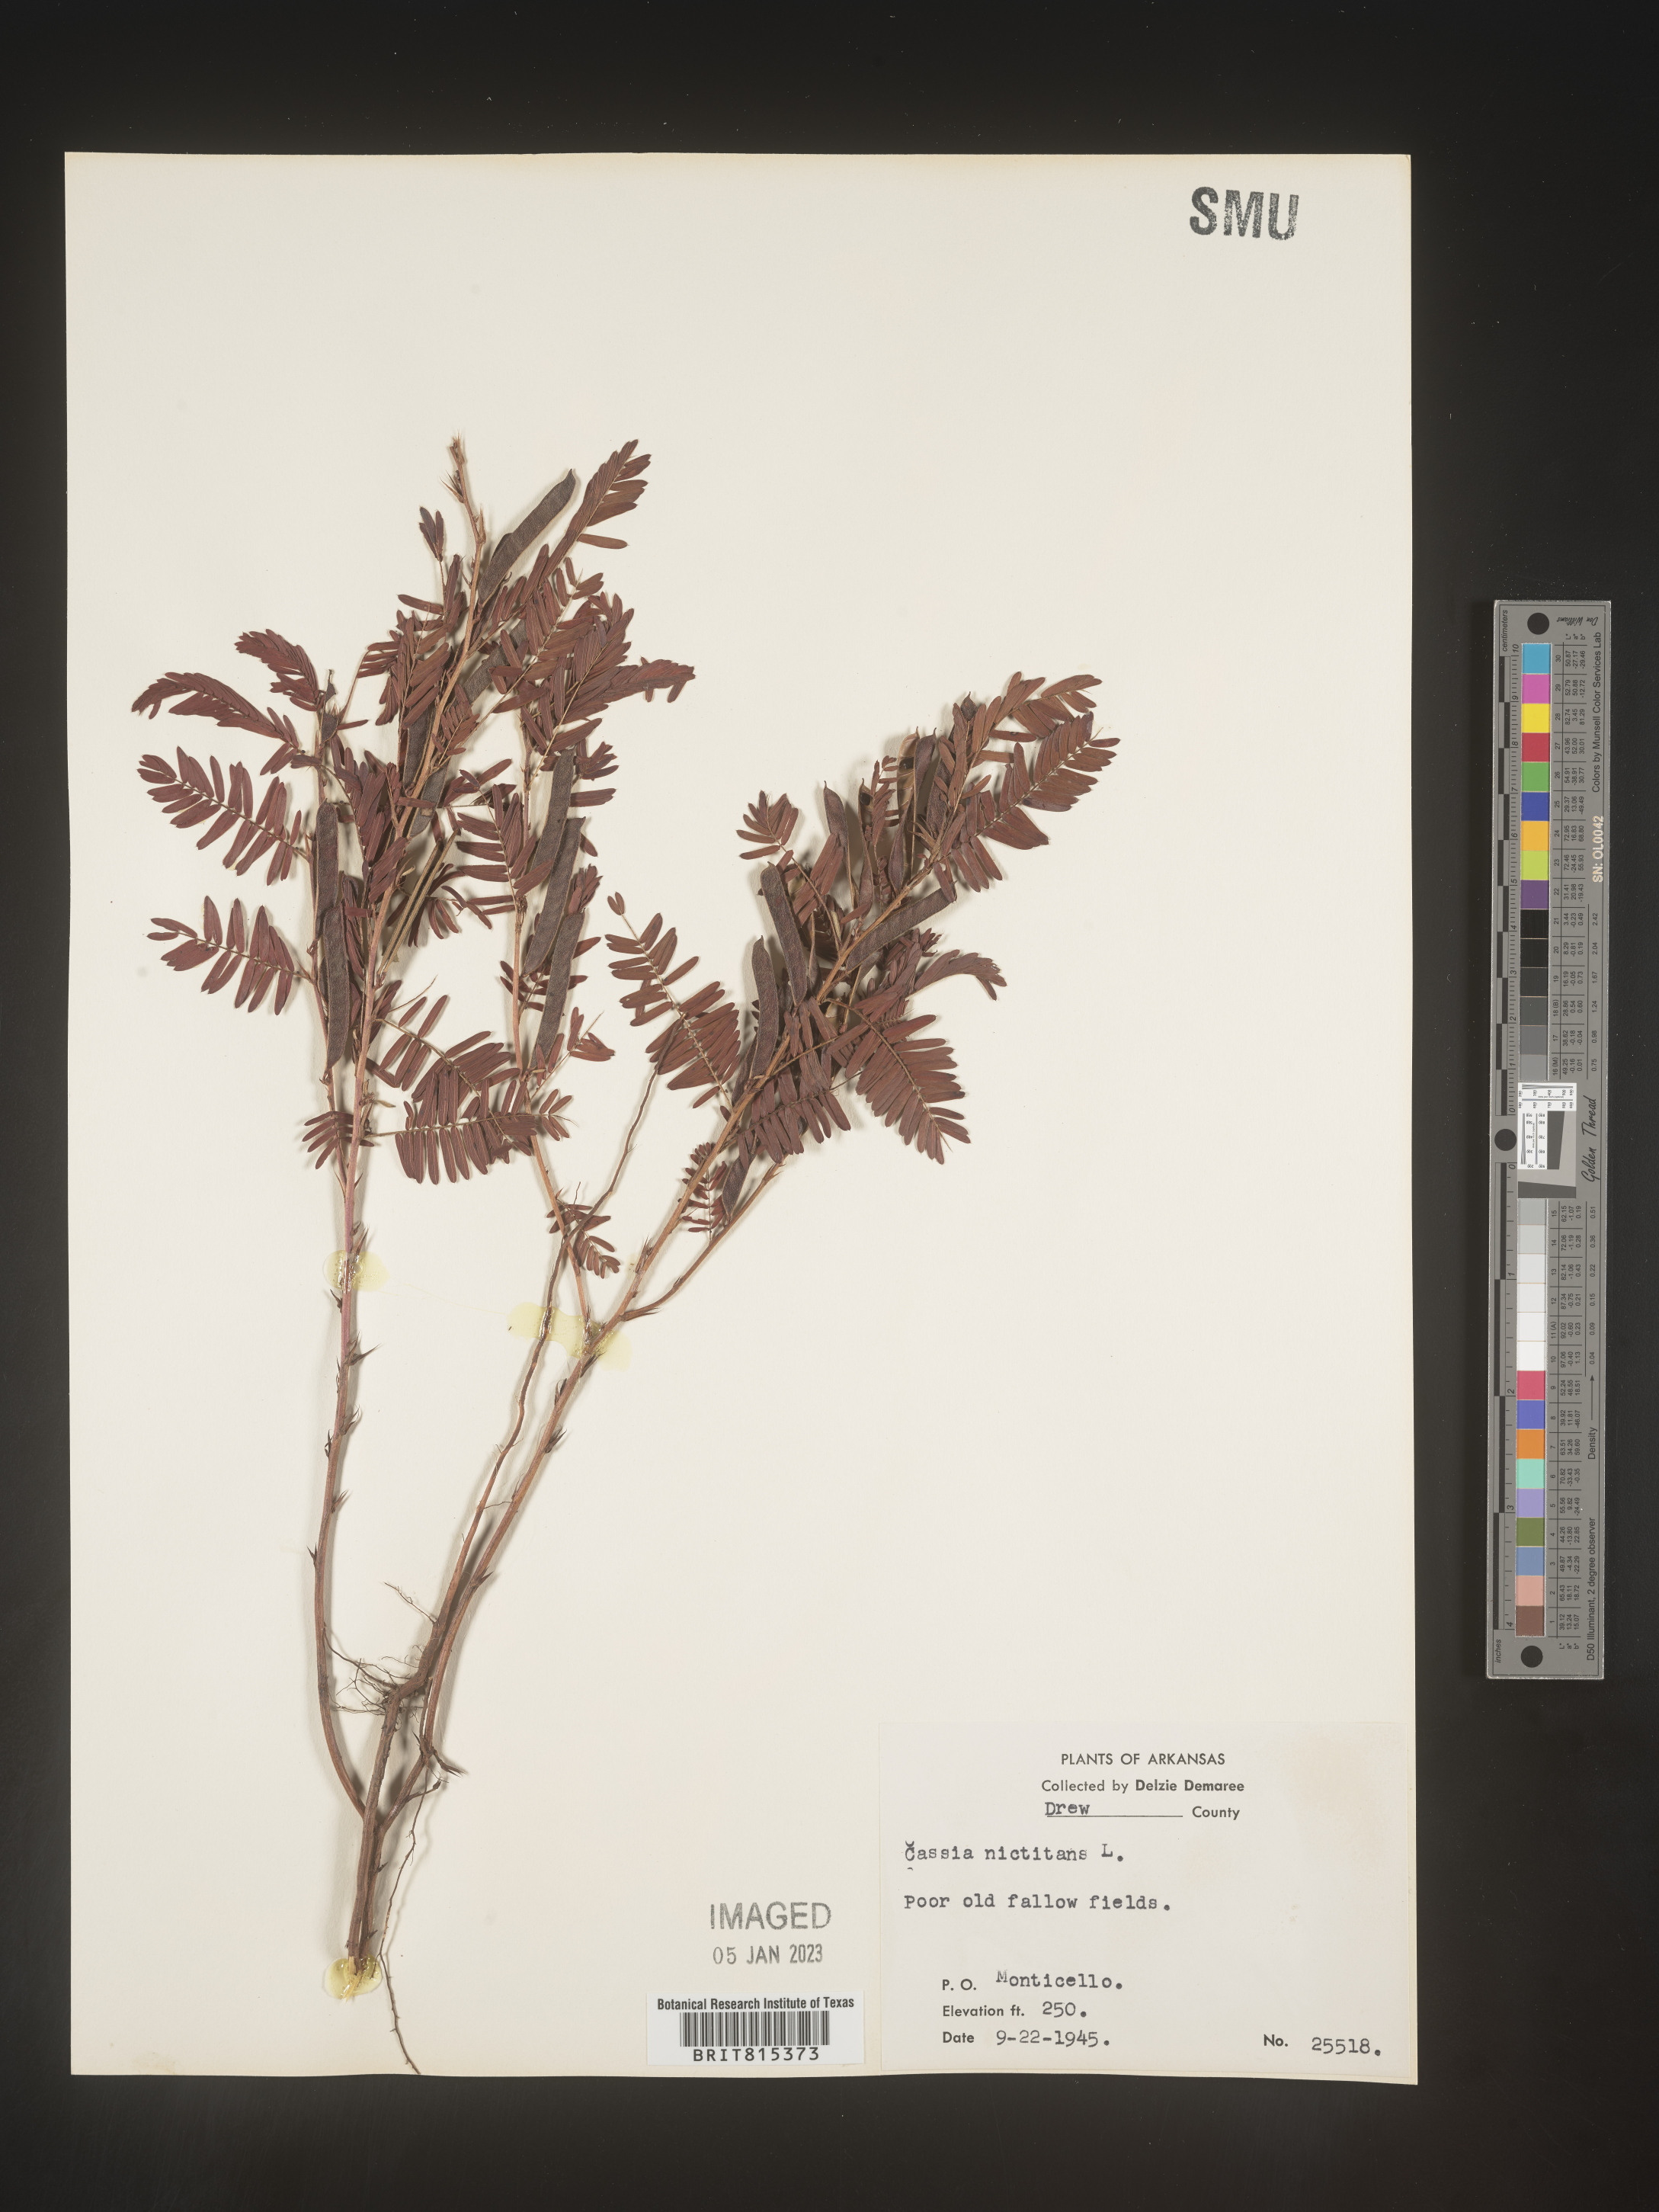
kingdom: Plantae
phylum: Tracheophyta
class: Magnoliopsida
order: Fabales
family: Fabaceae
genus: Chamaecrista
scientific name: Chamaecrista nictitans
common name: Sensitive cassia
